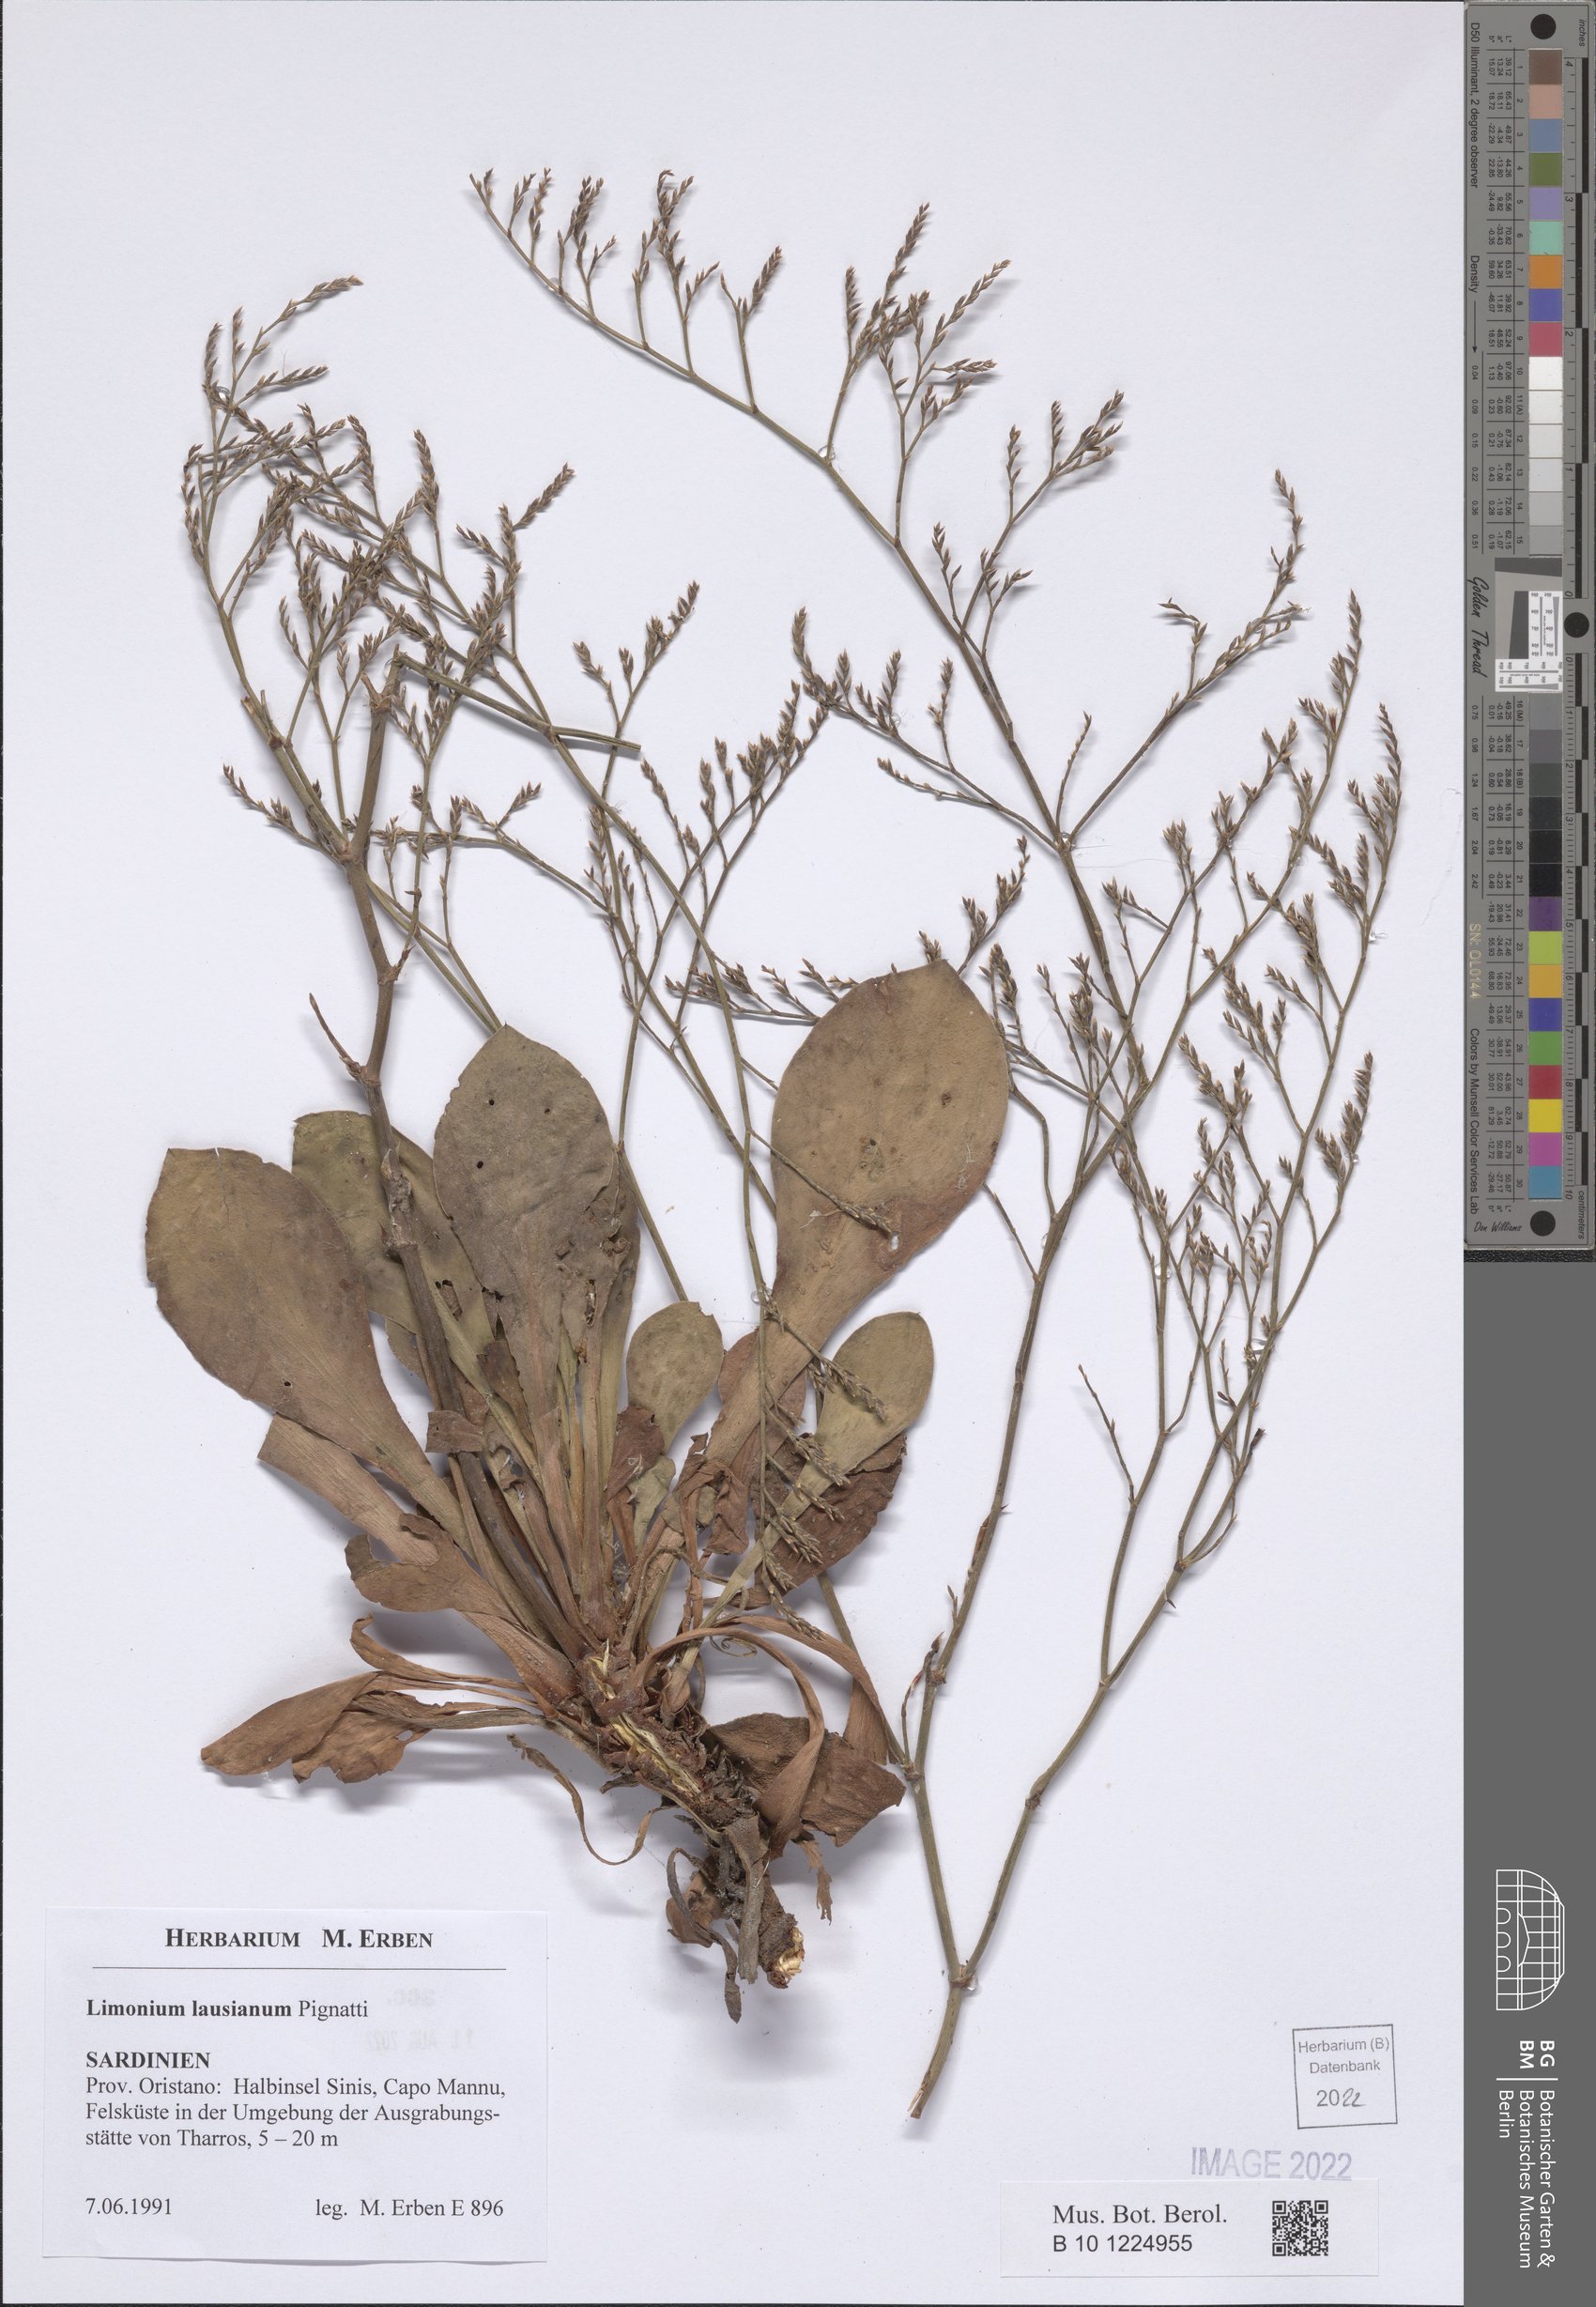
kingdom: Plantae
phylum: Tracheophyta
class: Magnoliopsida
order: Caryophyllales
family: Plumbaginaceae
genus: Limonium
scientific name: Limonium lausianum
